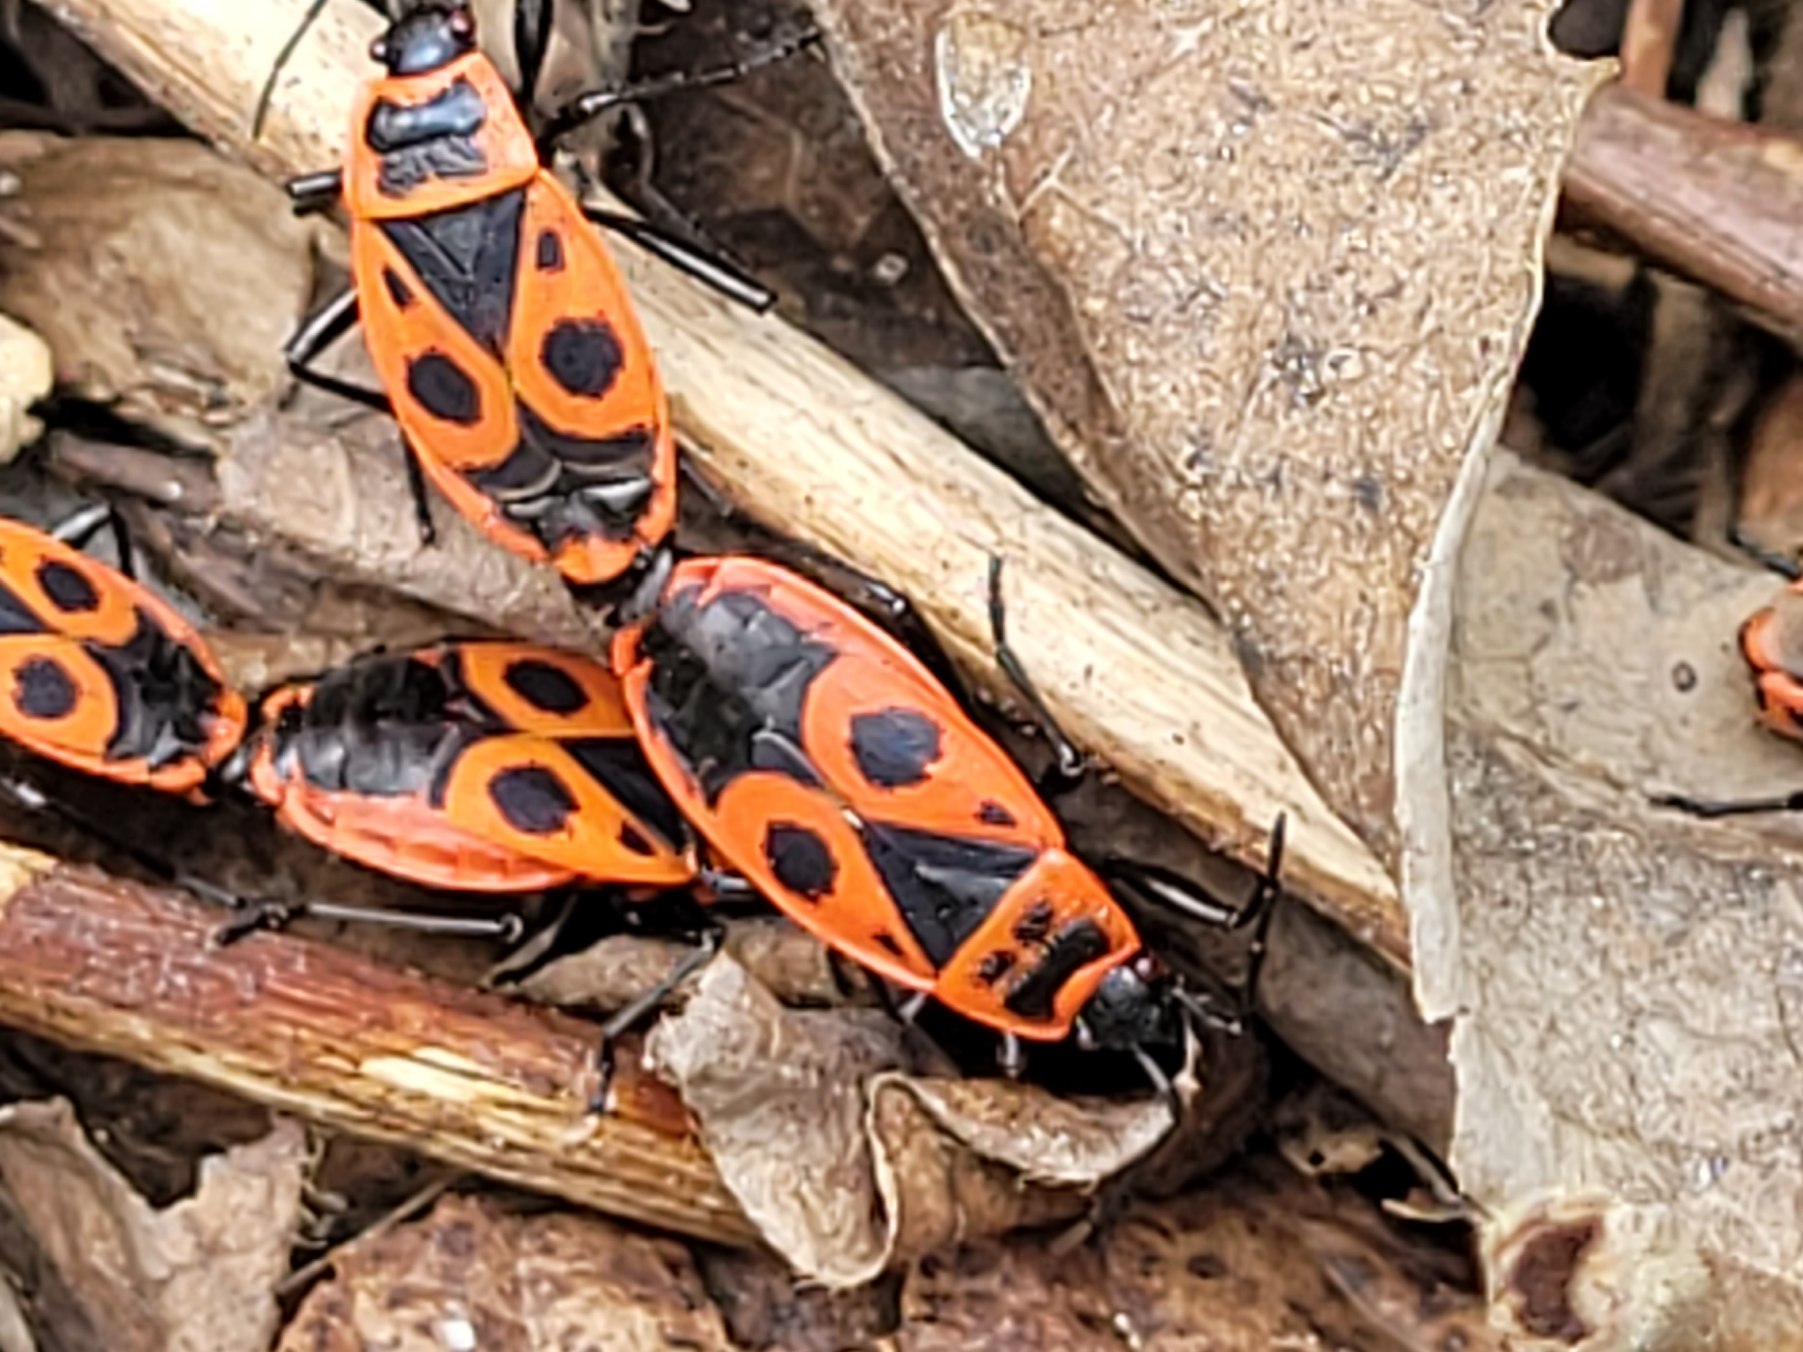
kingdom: Animalia
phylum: Arthropoda
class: Insecta
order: Hemiptera
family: Pyrrhocoridae
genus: Pyrrhocoris
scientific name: Pyrrhocoris apterus
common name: Ildtæge
